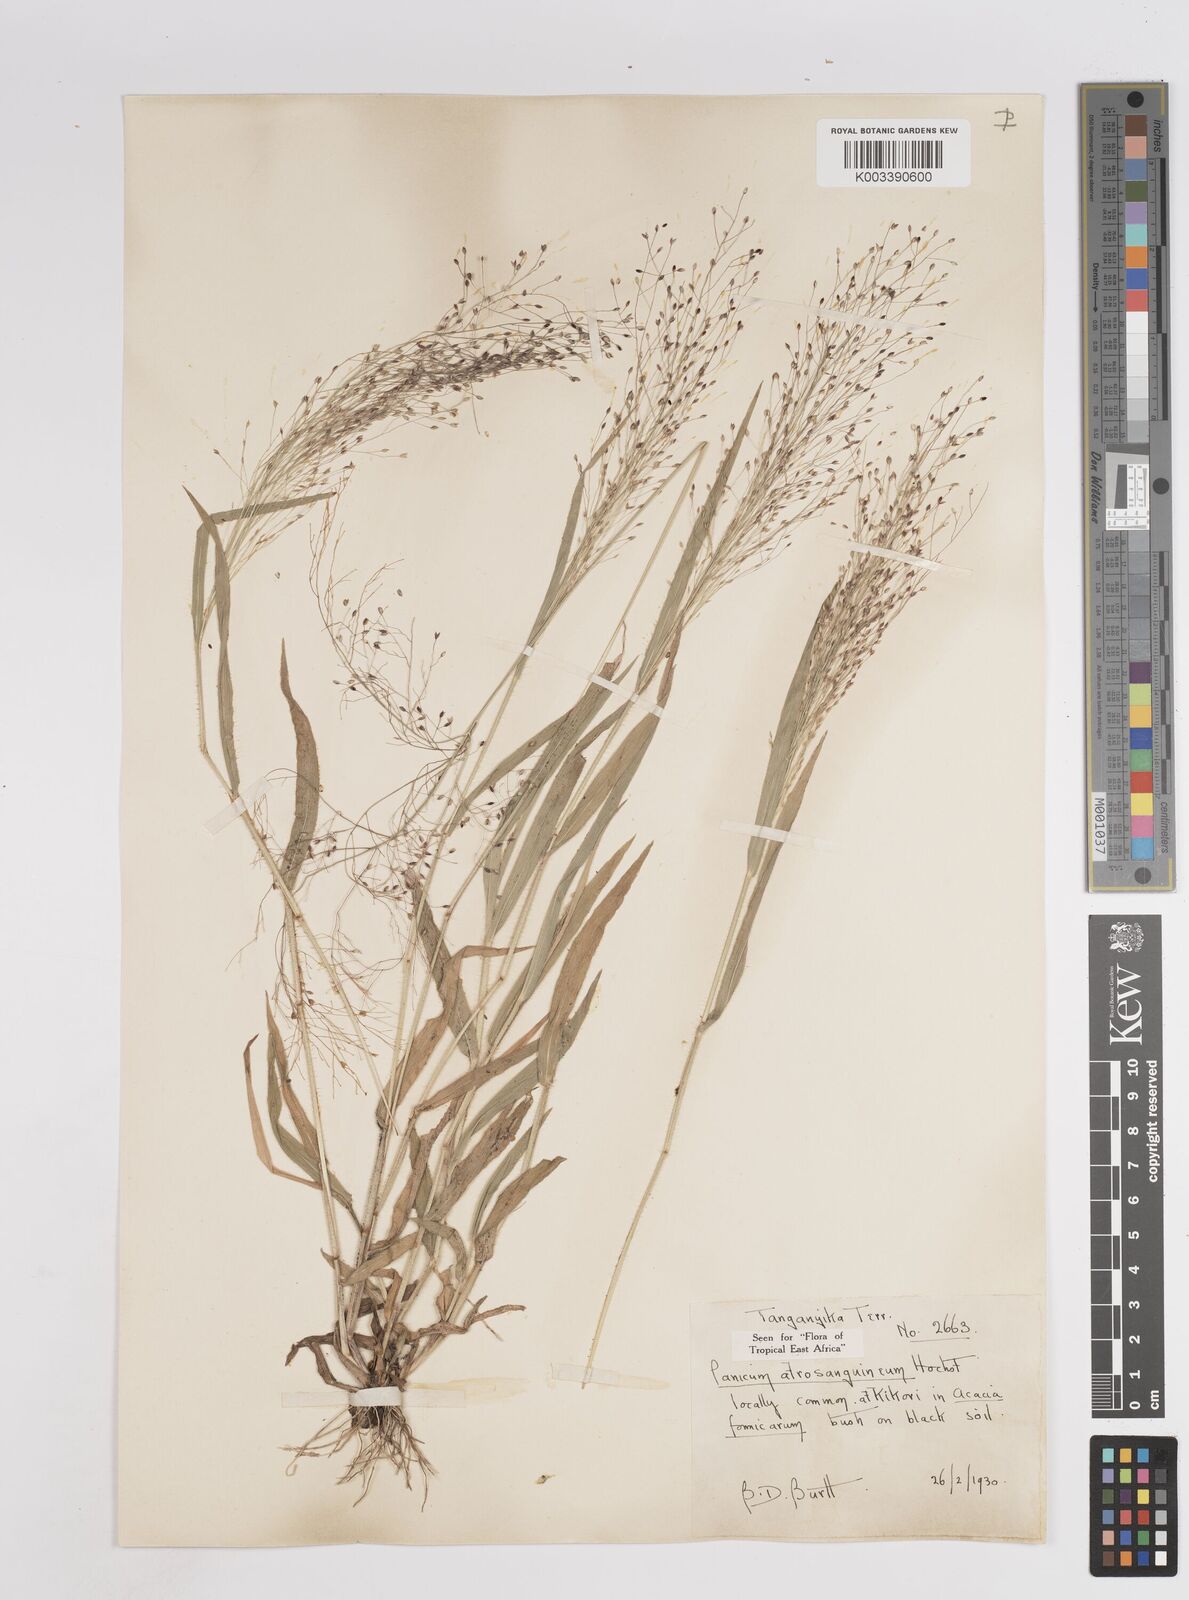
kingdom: Plantae
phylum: Tracheophyta
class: Liliopsida
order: Poales
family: Poaceae
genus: Panicum
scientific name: Panicum atrosanguineum
